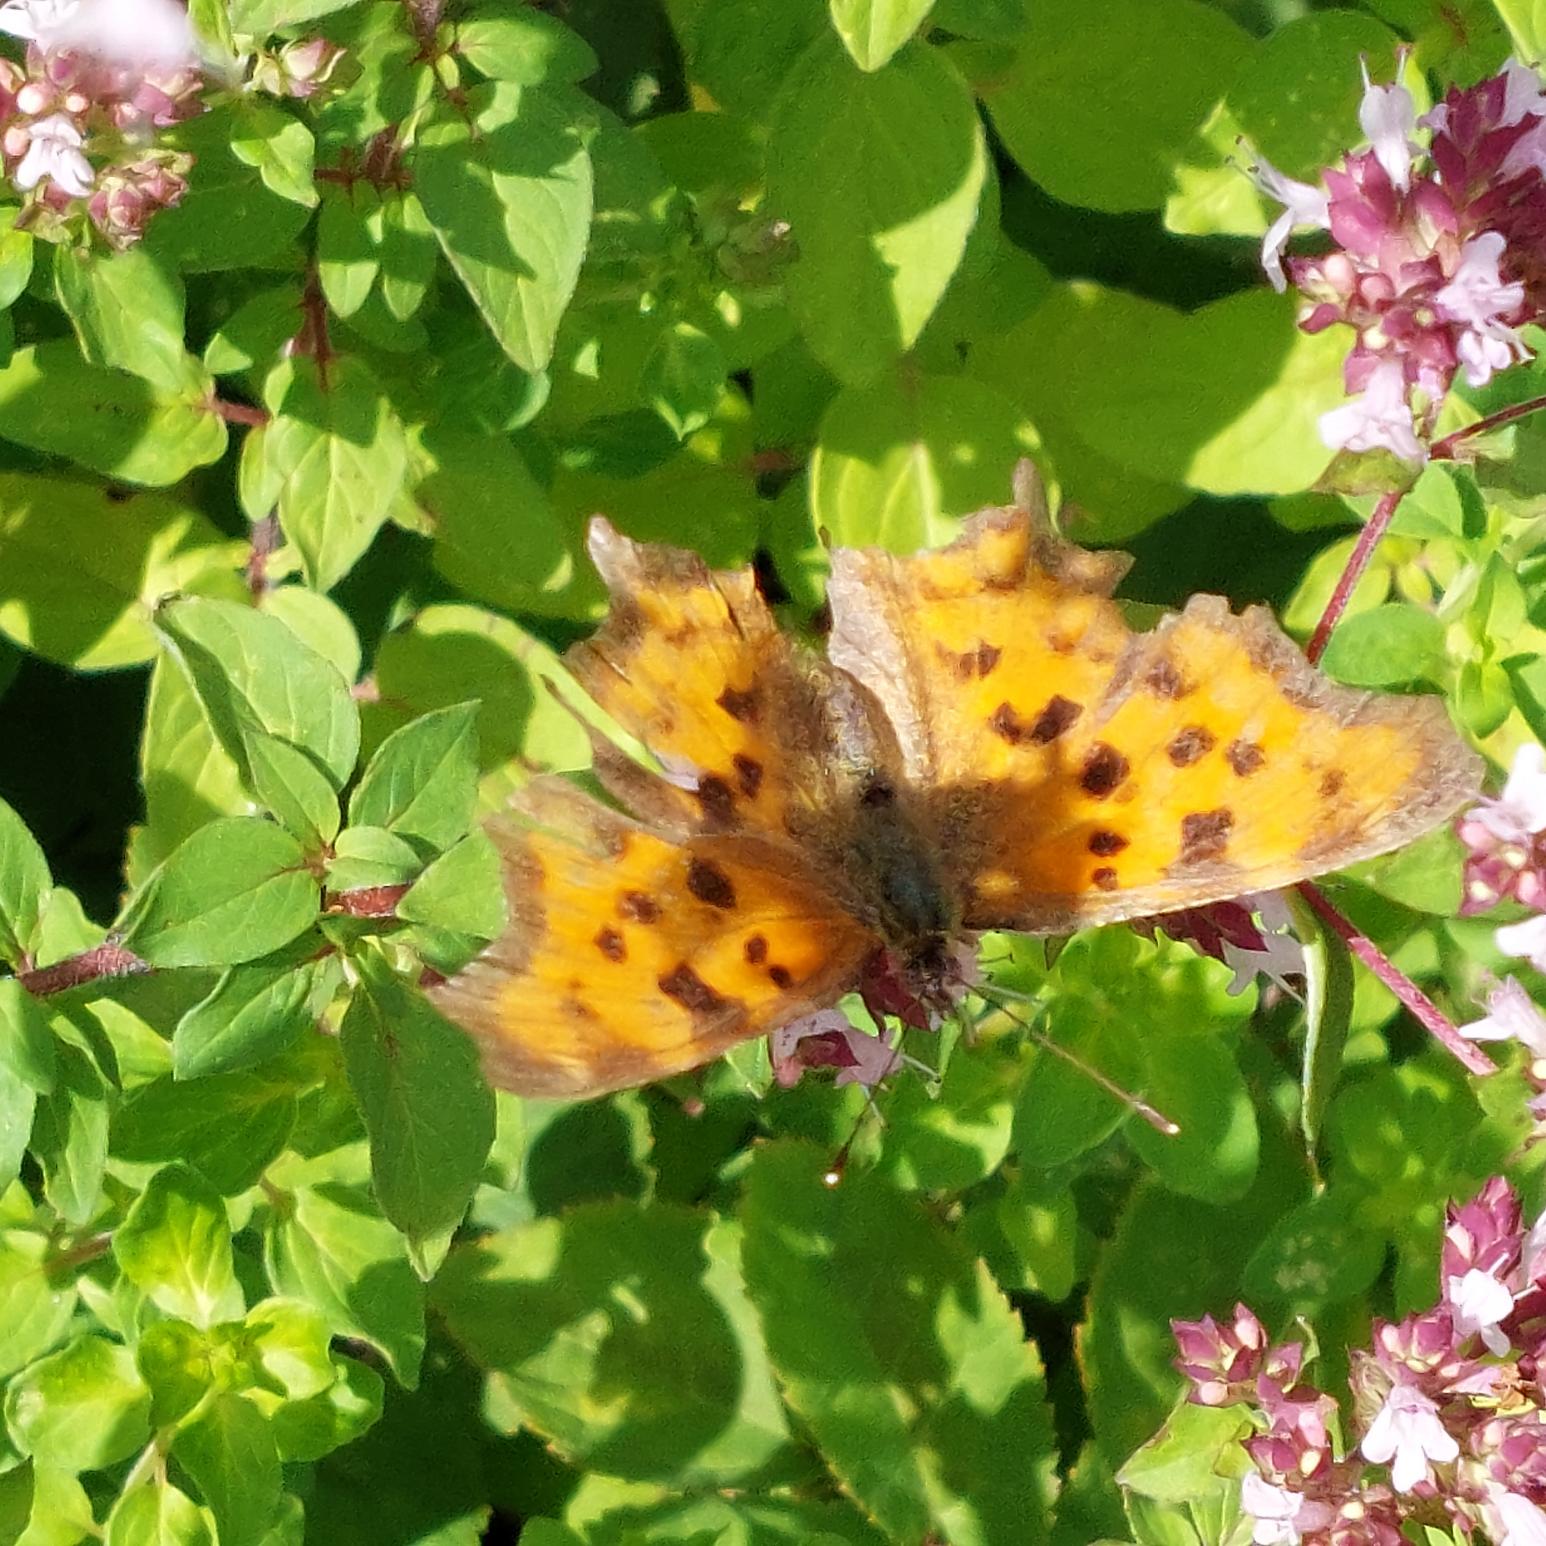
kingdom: Animalia
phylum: Arthropoda
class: Insecta
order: Lepidoptera
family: Nymphalidae
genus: Polygonia
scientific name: Polygonia c-album
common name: Det hvide C
